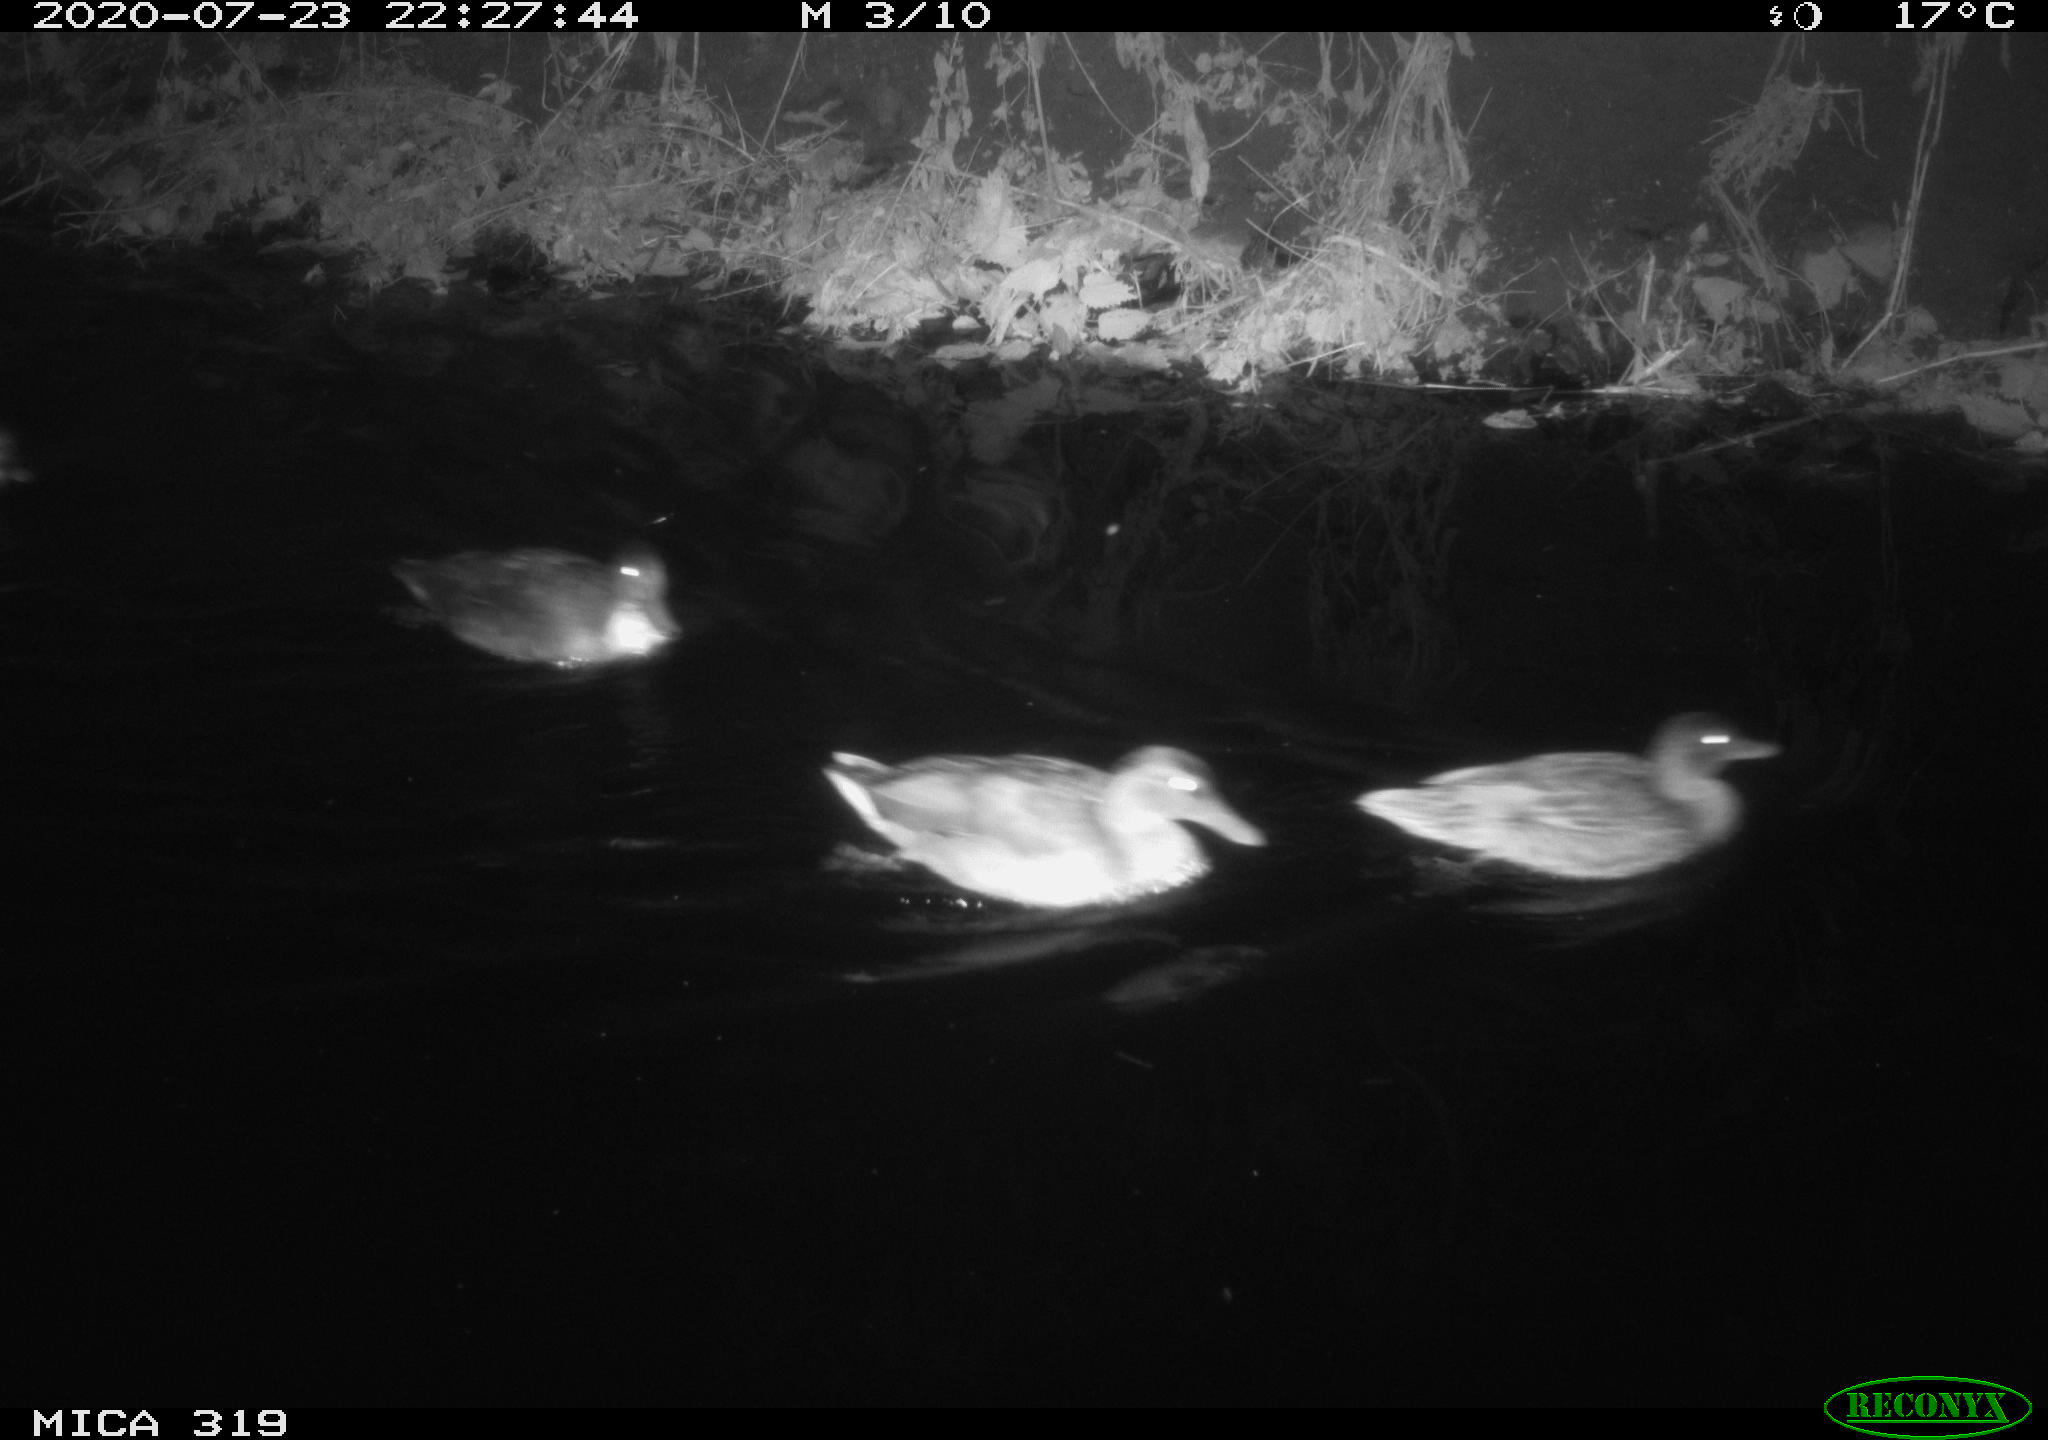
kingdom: Animalia
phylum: Chordata
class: Aves
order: Anseriformes
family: Anatidae
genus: Anas
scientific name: Anas platyrhynchos
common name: Mallard
